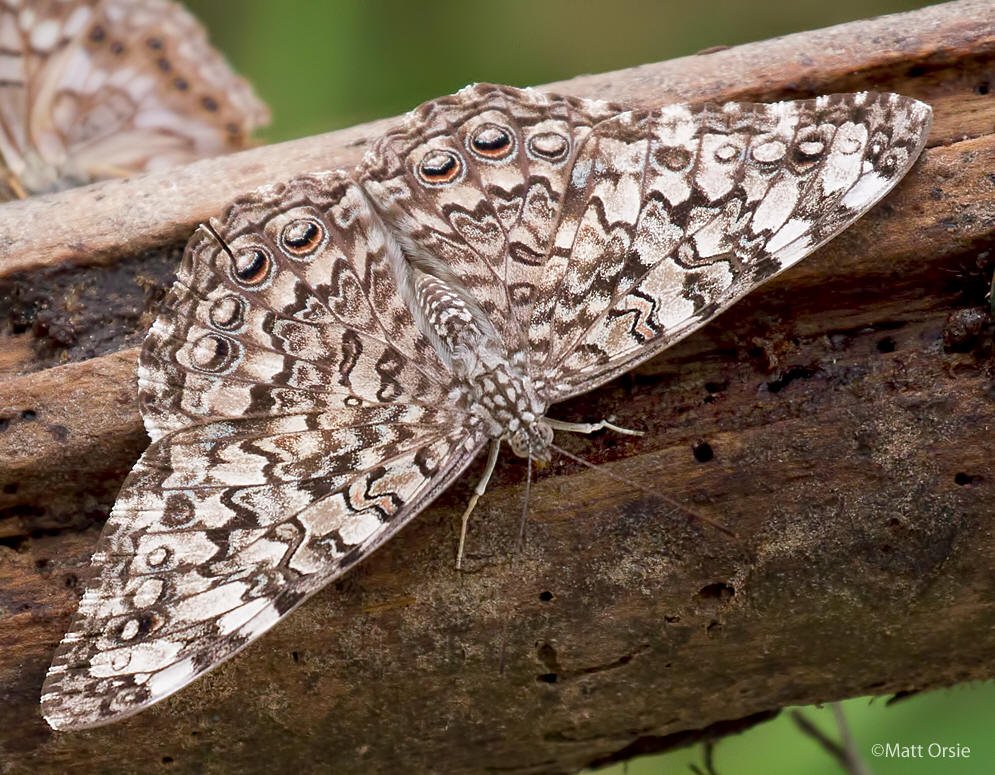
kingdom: Animalia
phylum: Arthropoda
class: Insecta
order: Lepidoptera
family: Nymphalidae
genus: Hamadryas
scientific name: Hamadryas februa
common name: Gray Cracker
